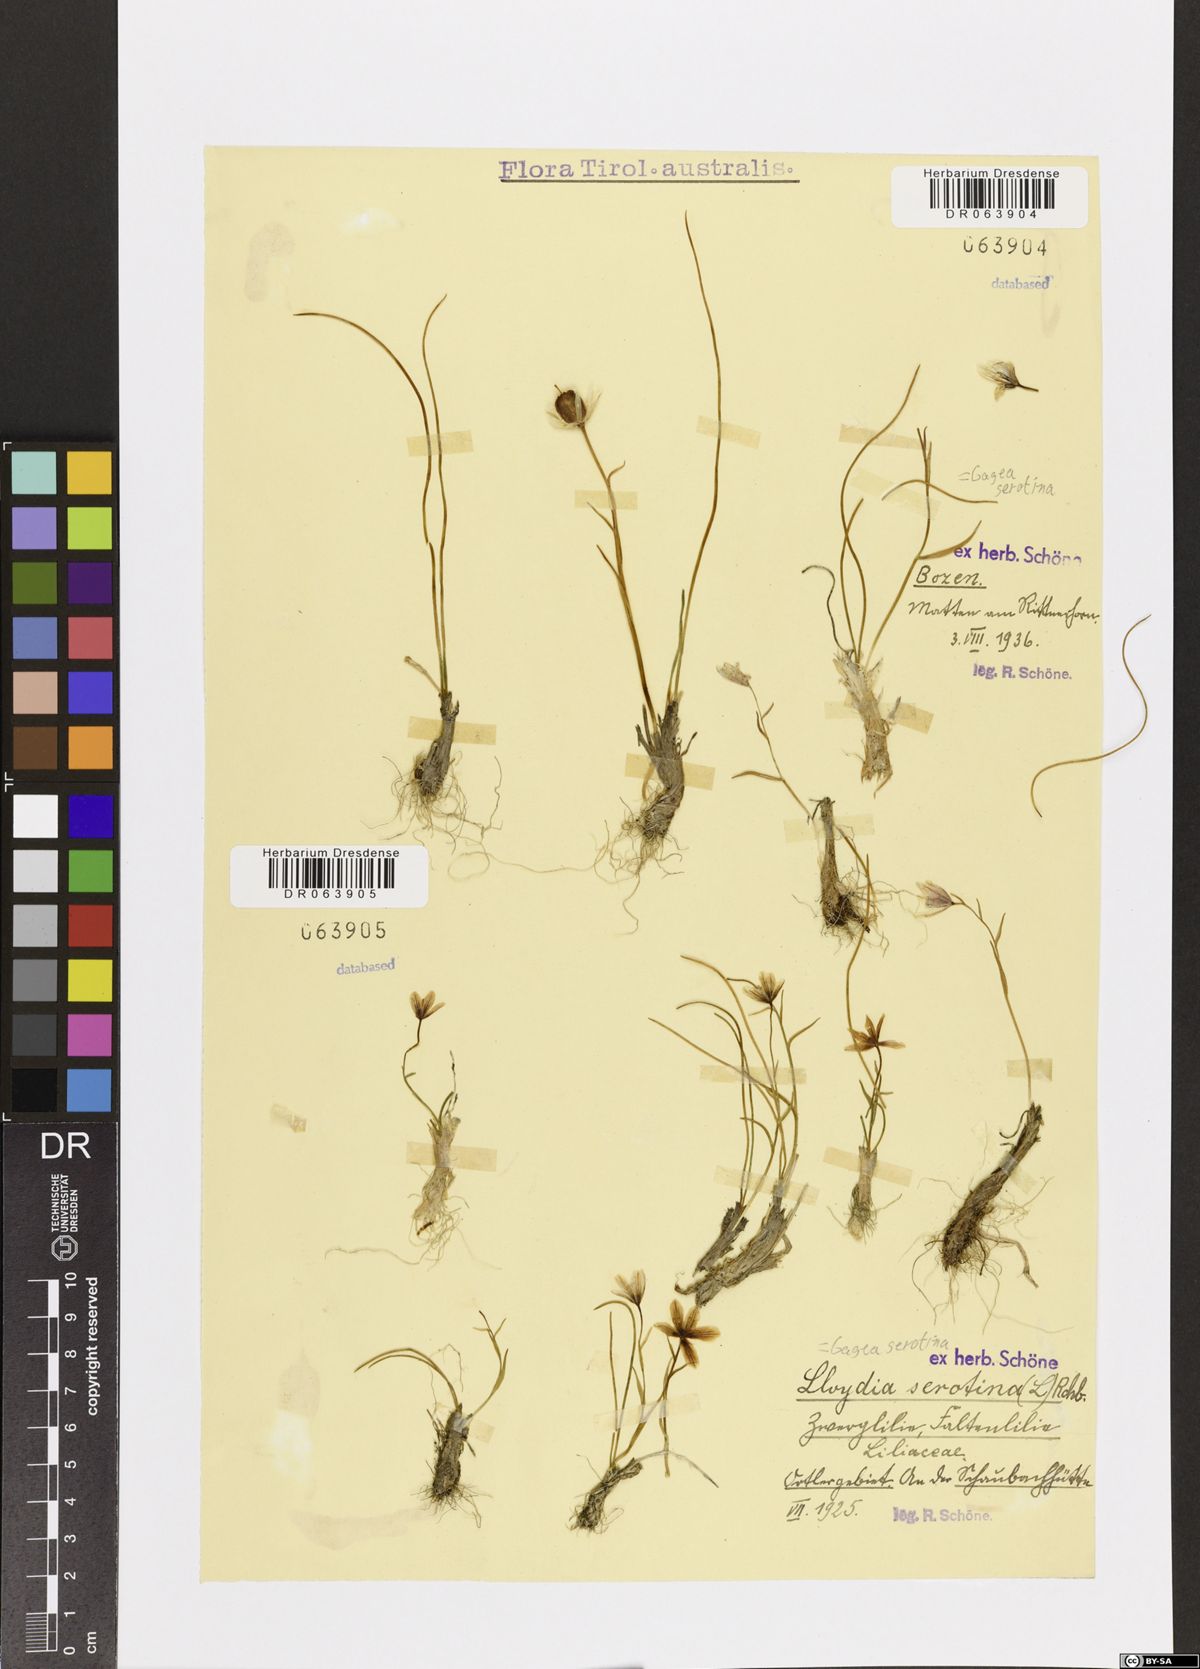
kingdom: Plantae
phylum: Tracheophyta
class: Liliopsida
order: Liliales
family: Liliaceae
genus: Gagea
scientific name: Gagea serotina
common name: Snowdon lily
